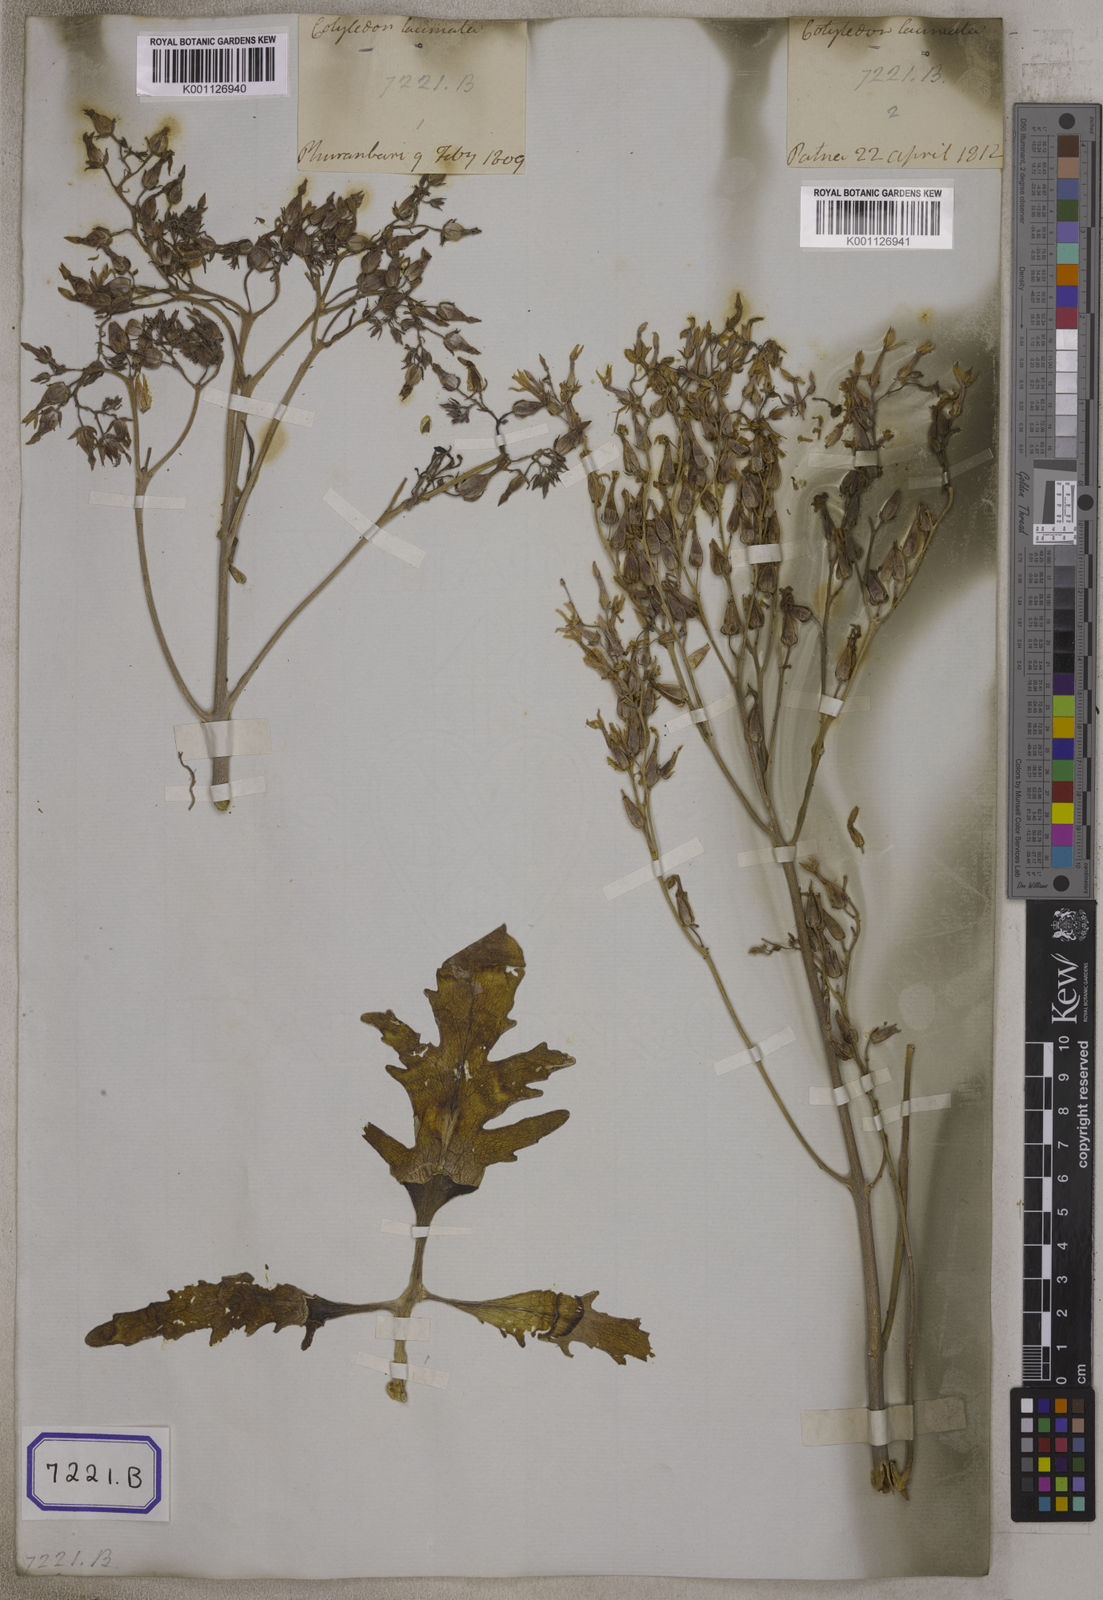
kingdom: Plantae
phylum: Tracheophyta
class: Magnoliopsida
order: Saxifragales
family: Crassulaceae
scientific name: Crassulaceae
